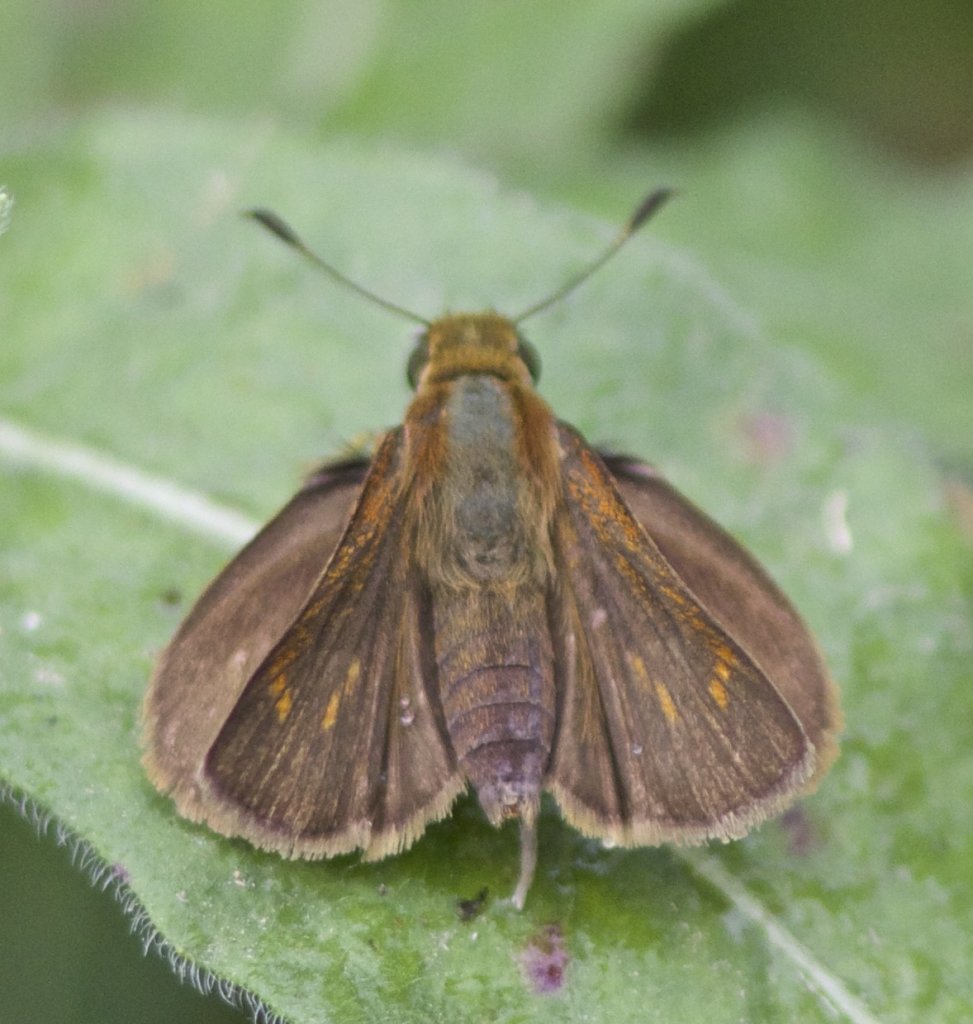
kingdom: Animalia
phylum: Arthropoda
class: Insecta
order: Lepidoptera
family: Hesperiidae
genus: Wallengrenia
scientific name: Wallengrenia otho
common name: Southern Broken-Dash
